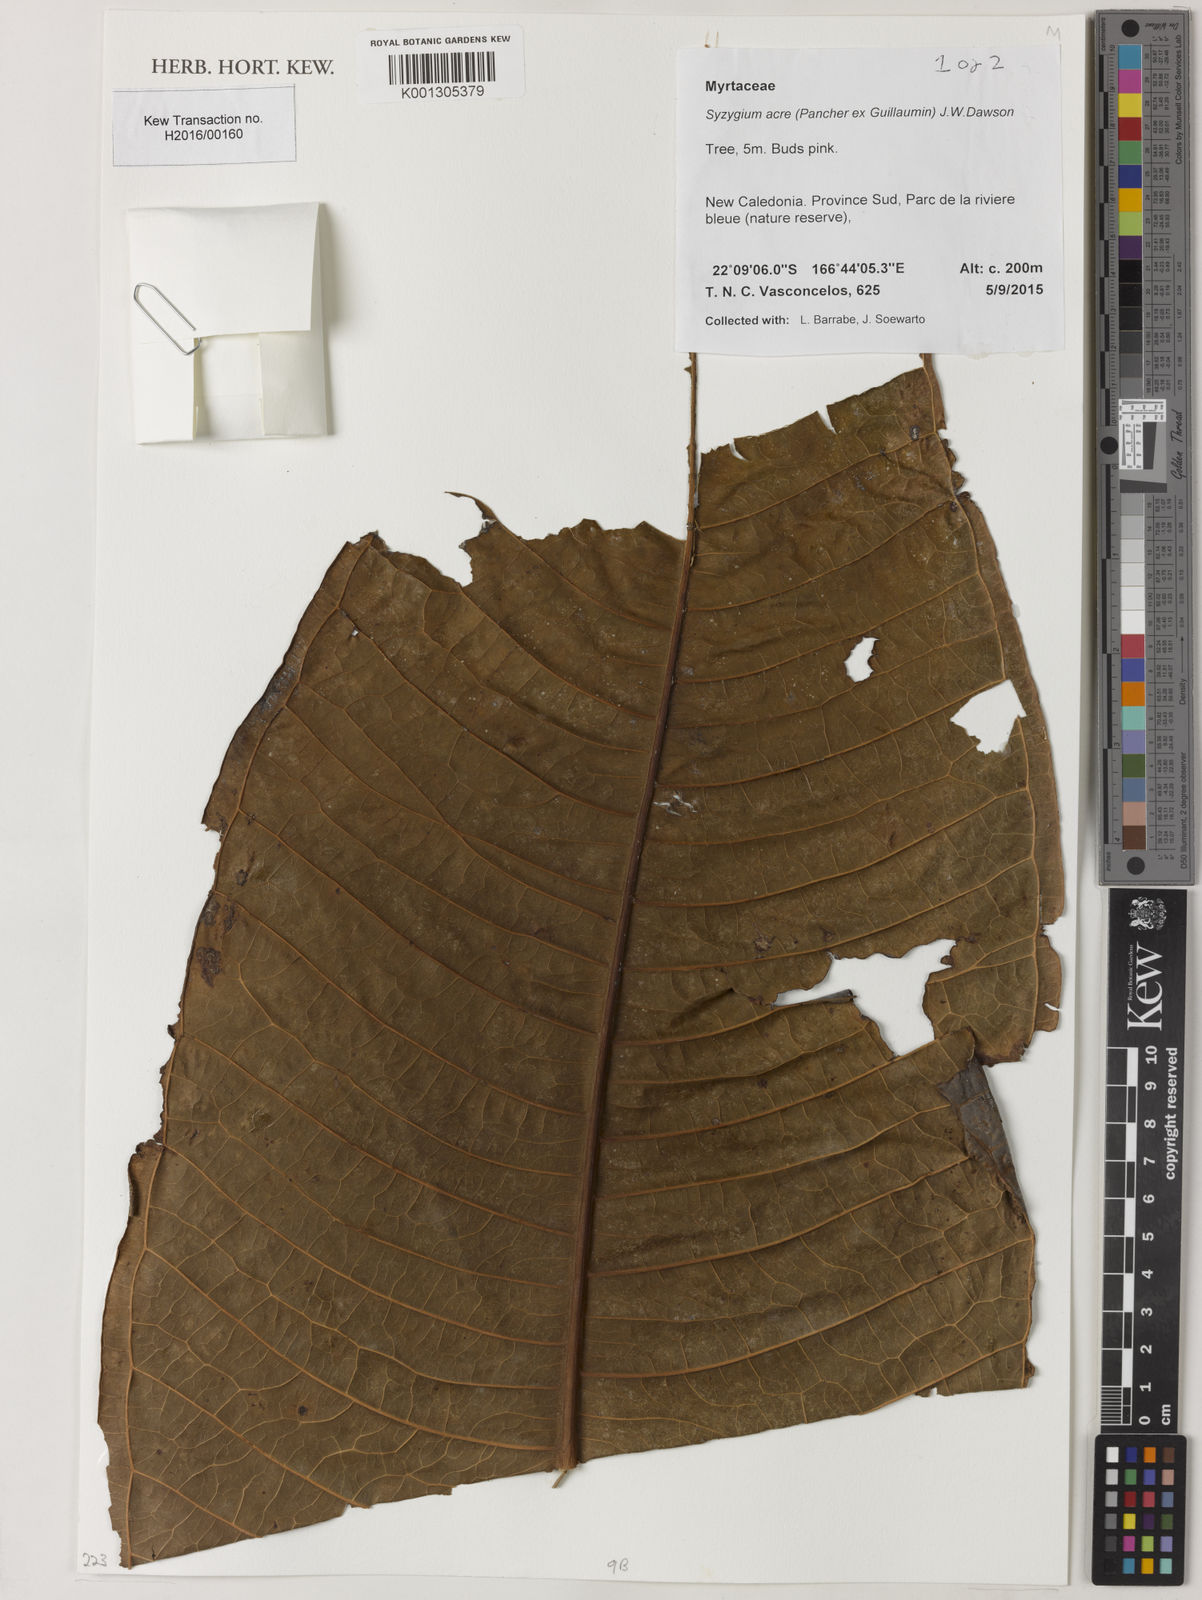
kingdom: Plantae
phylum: Tracheophyta
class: Magnoliopsida
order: Myrtales
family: Myrtaceae
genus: Syzygium
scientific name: Syzygium acre
